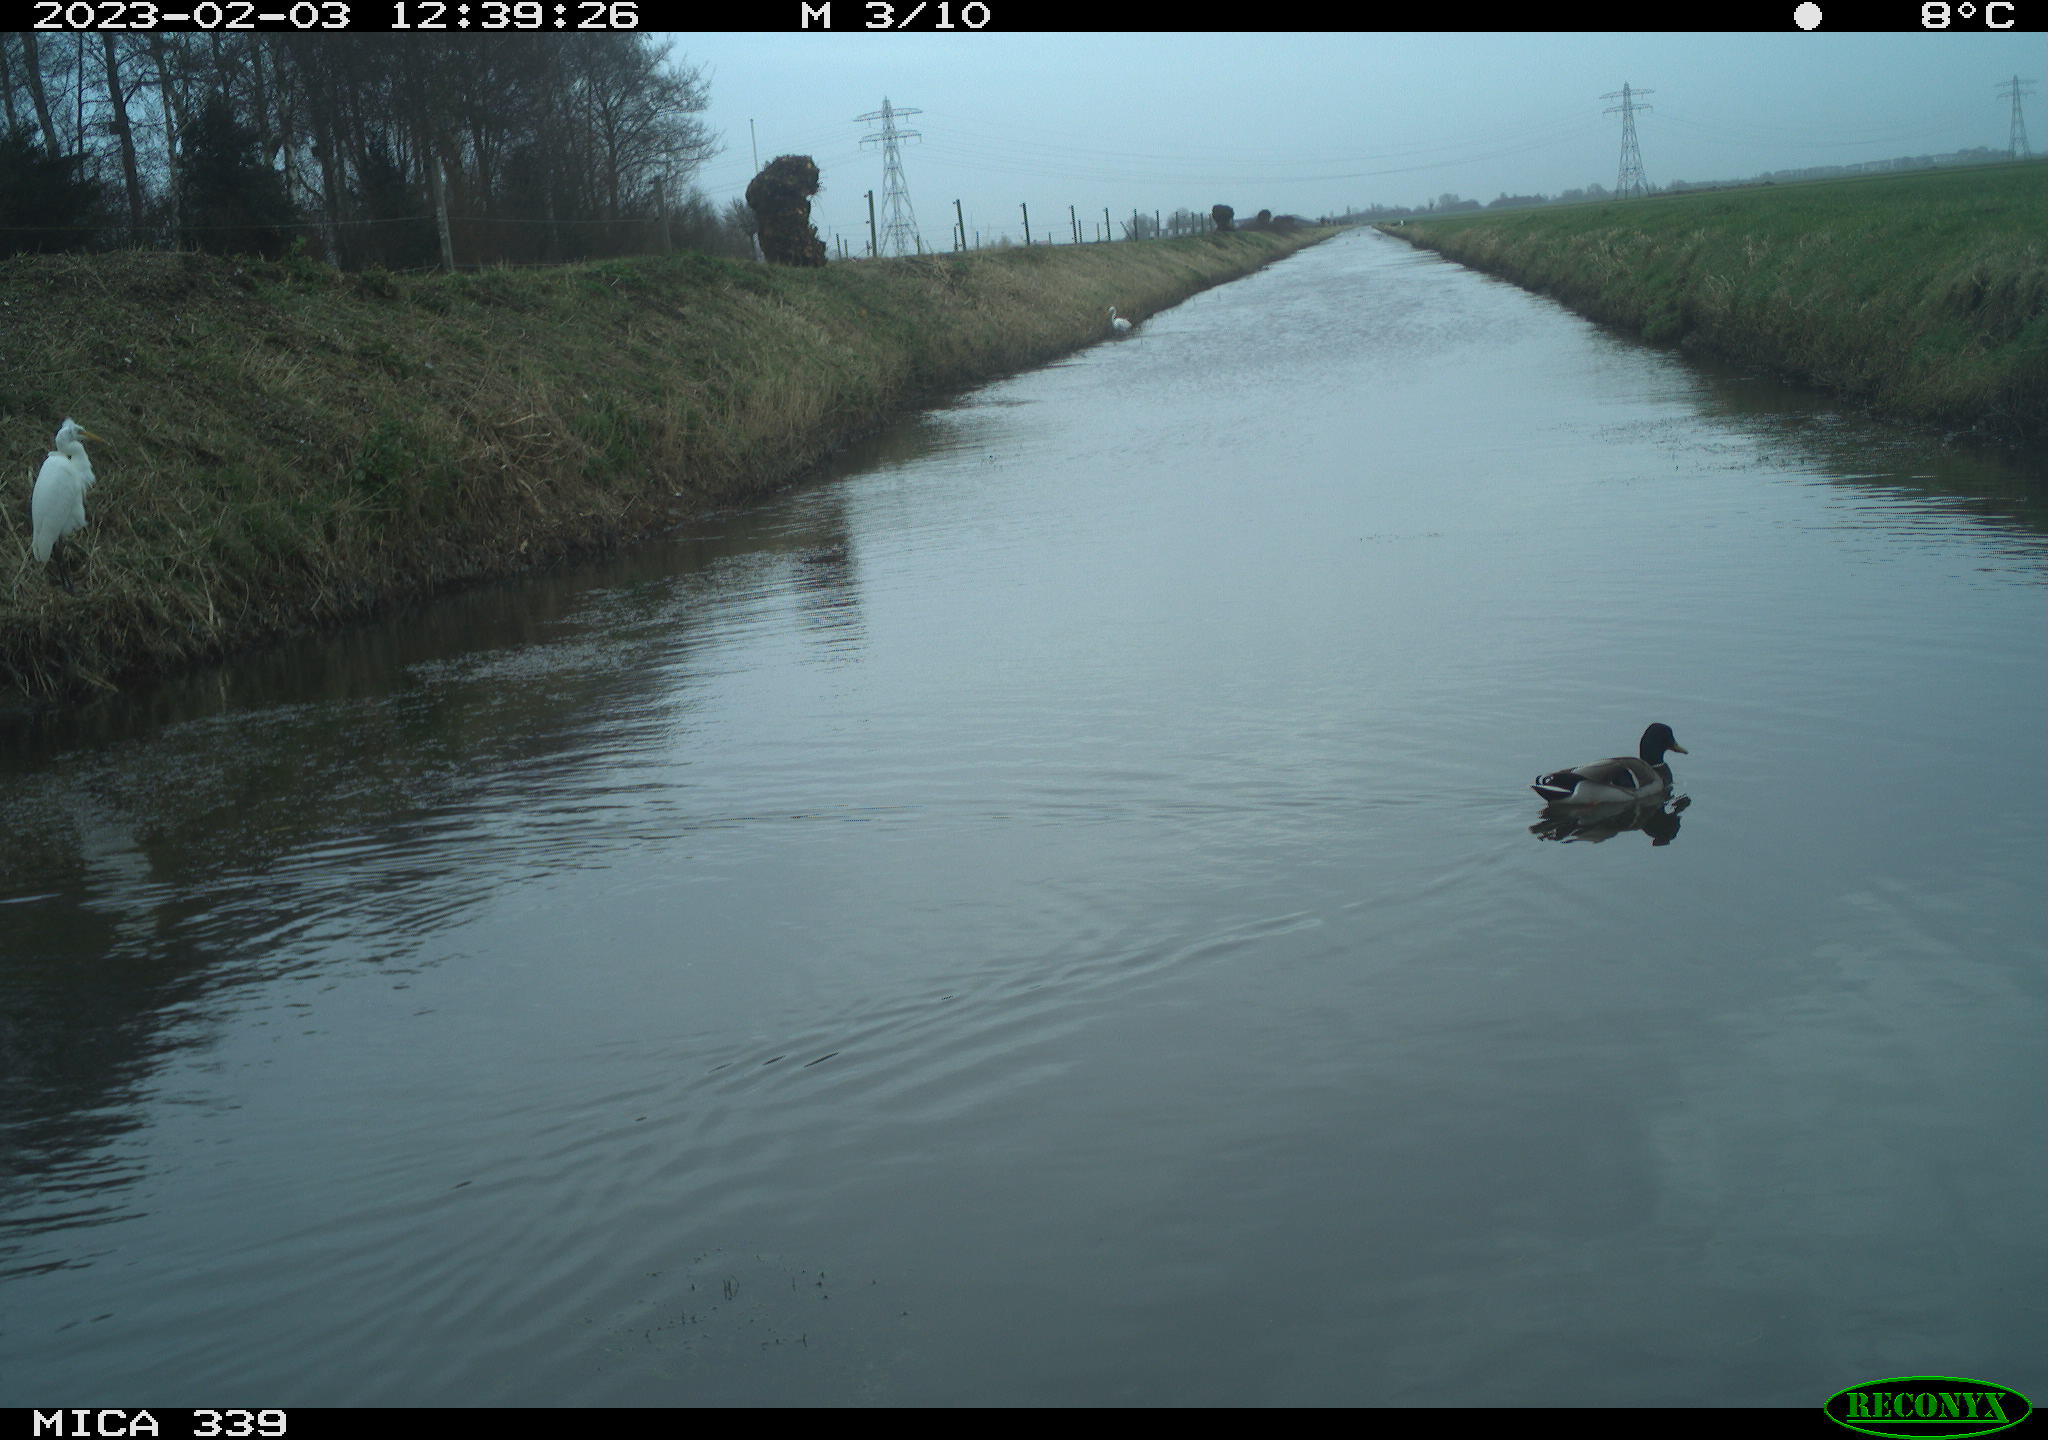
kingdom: Animalia
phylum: Chordata
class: Aves
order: Pelecaniformes
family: Ardeidae
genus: Ardea
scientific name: Ardea alba
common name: Great egret
